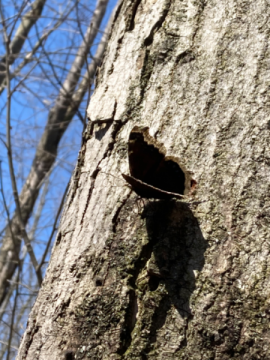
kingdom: Animalia
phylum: Arthropoda
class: Insecta
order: Lepidoptera
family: Nymphalidae
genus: Nymphalis
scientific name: Nymphalis antiopa
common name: Mourning Cloak
